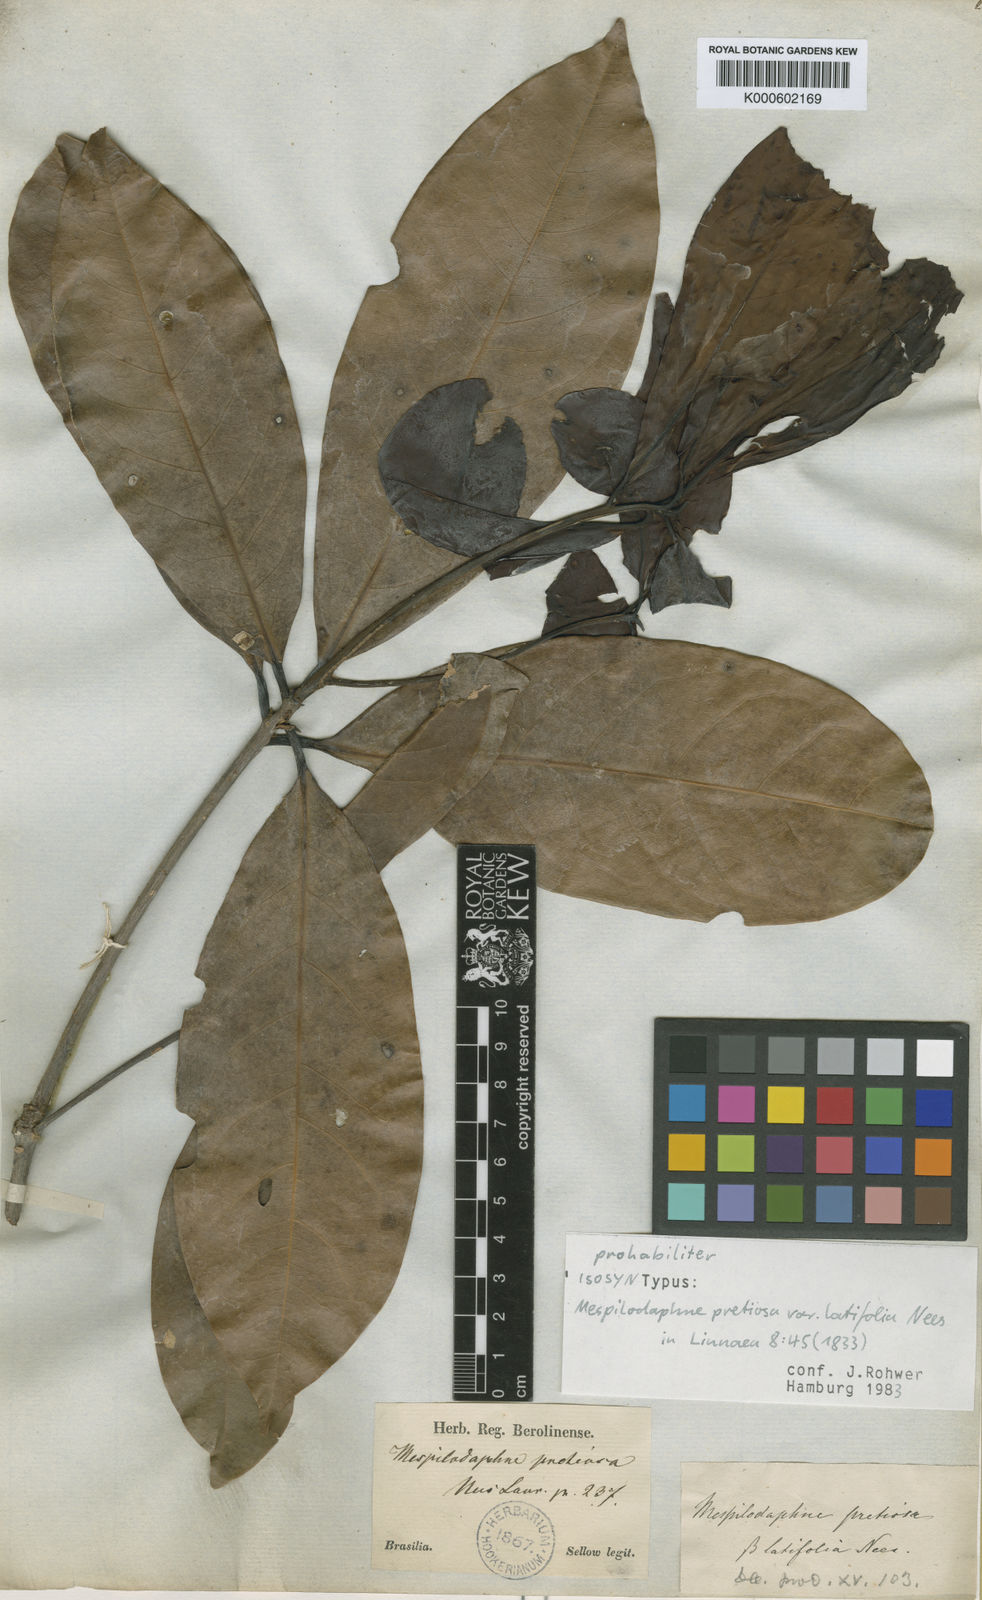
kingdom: Plantae
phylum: Tracheophyta
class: Magnoliopsida
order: Laurales
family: Lauraceae
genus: Mespilodaphne
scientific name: Mespilodaphne quixos
